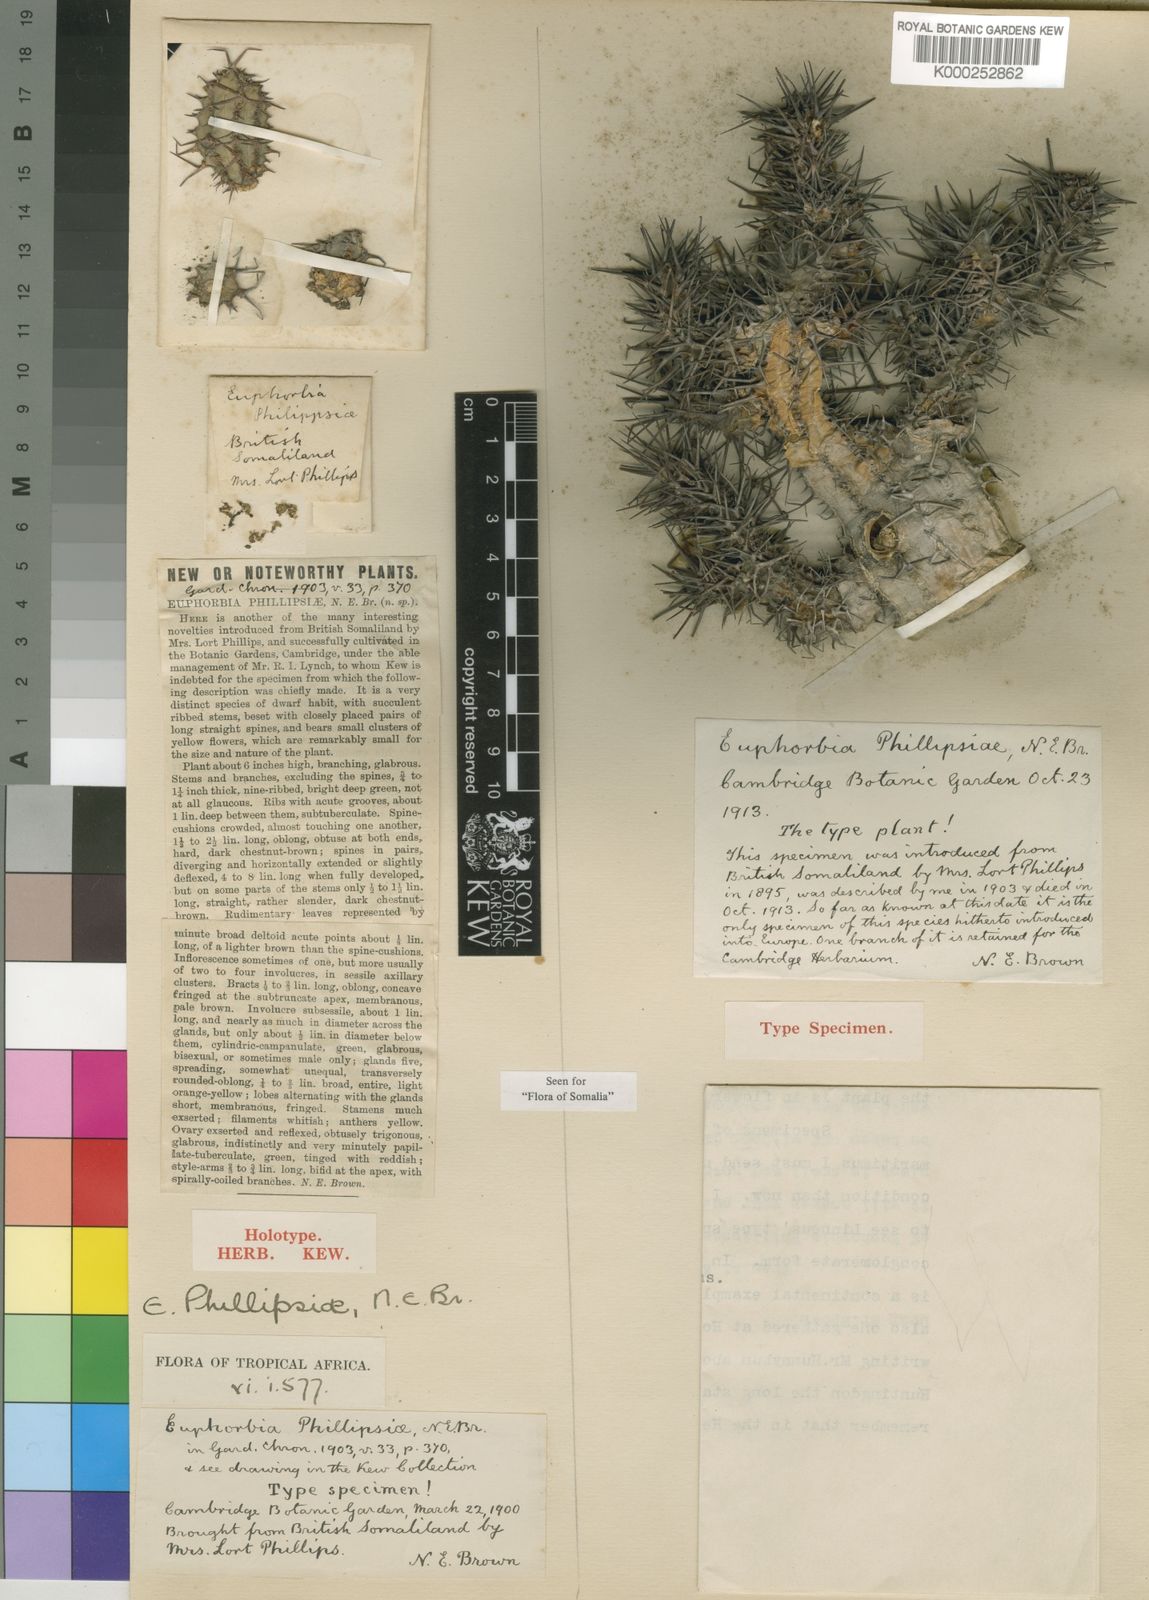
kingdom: Plantae
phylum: Tracheophyta
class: Magnoliopsida
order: Malpighiales
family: Euphorbiaceae
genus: Euphorbia
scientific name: Euphorbia phillipsiae
